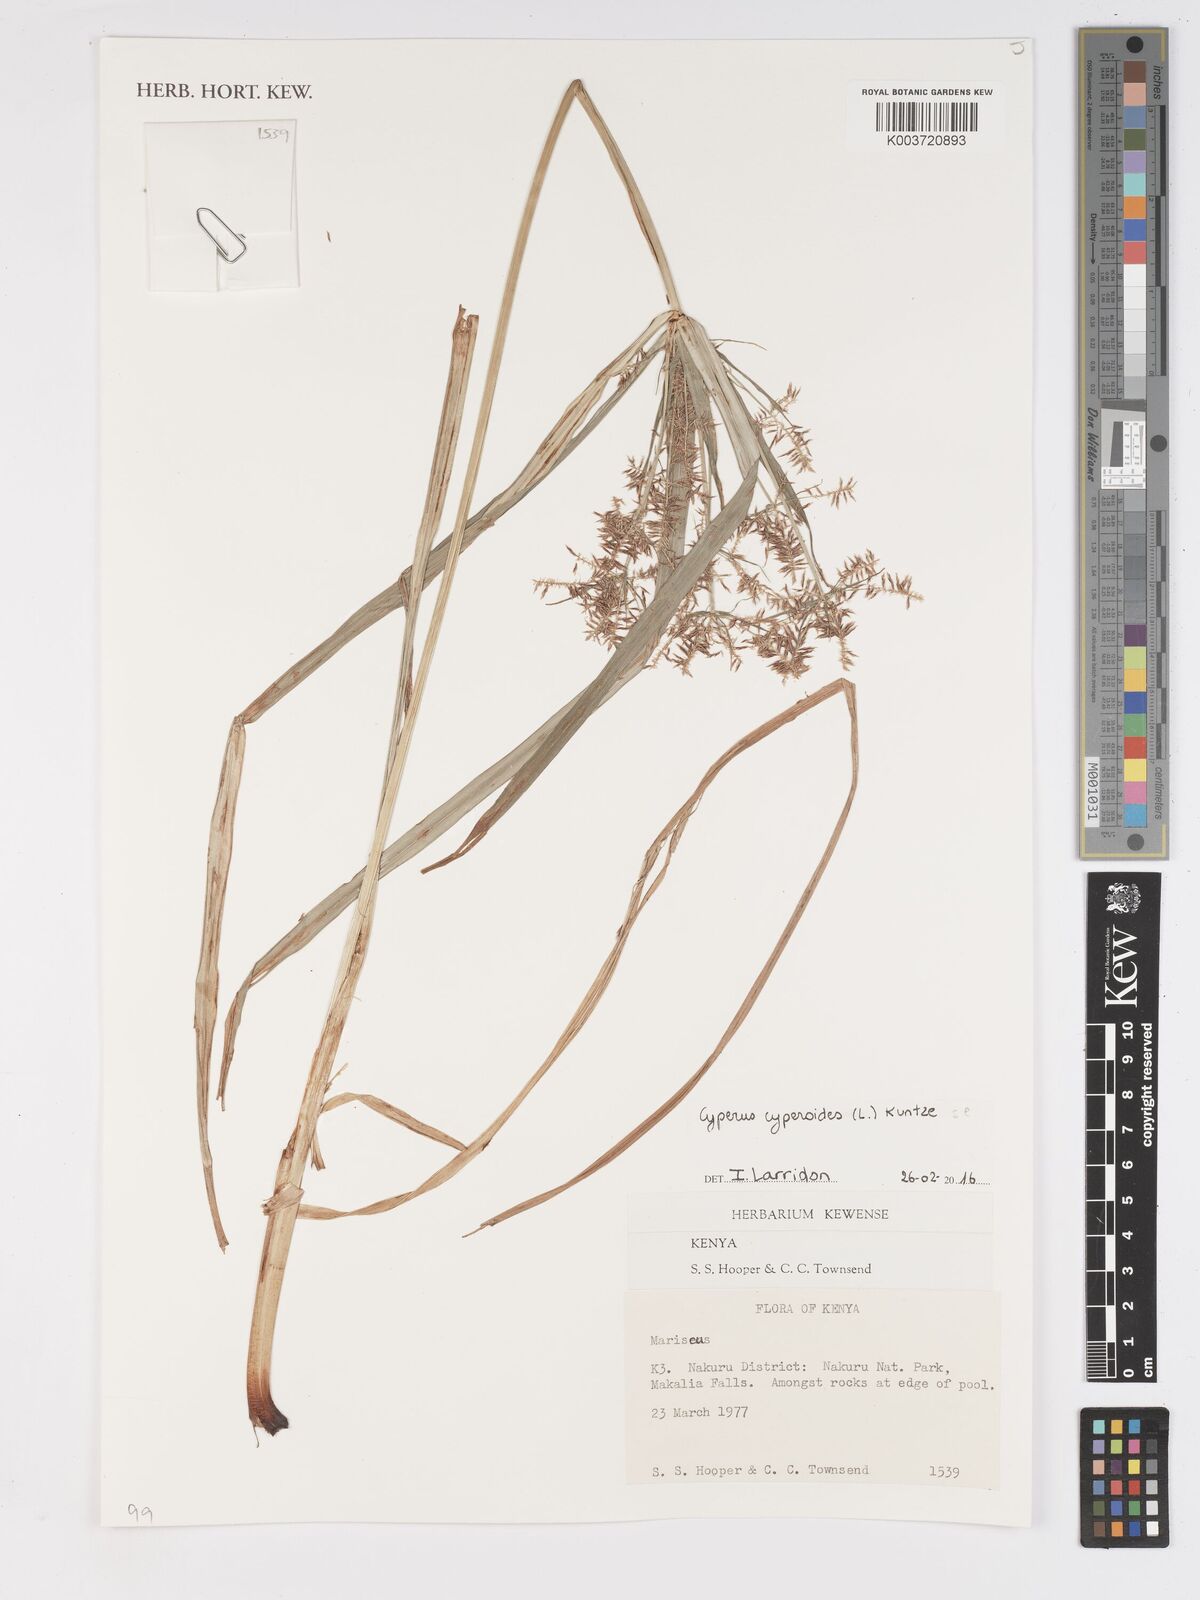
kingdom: Plantae
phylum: Tracheophyta
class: Liliopsida
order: Poales
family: Cyperaceae
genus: Cyperus
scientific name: Cyperus macrocarpus
